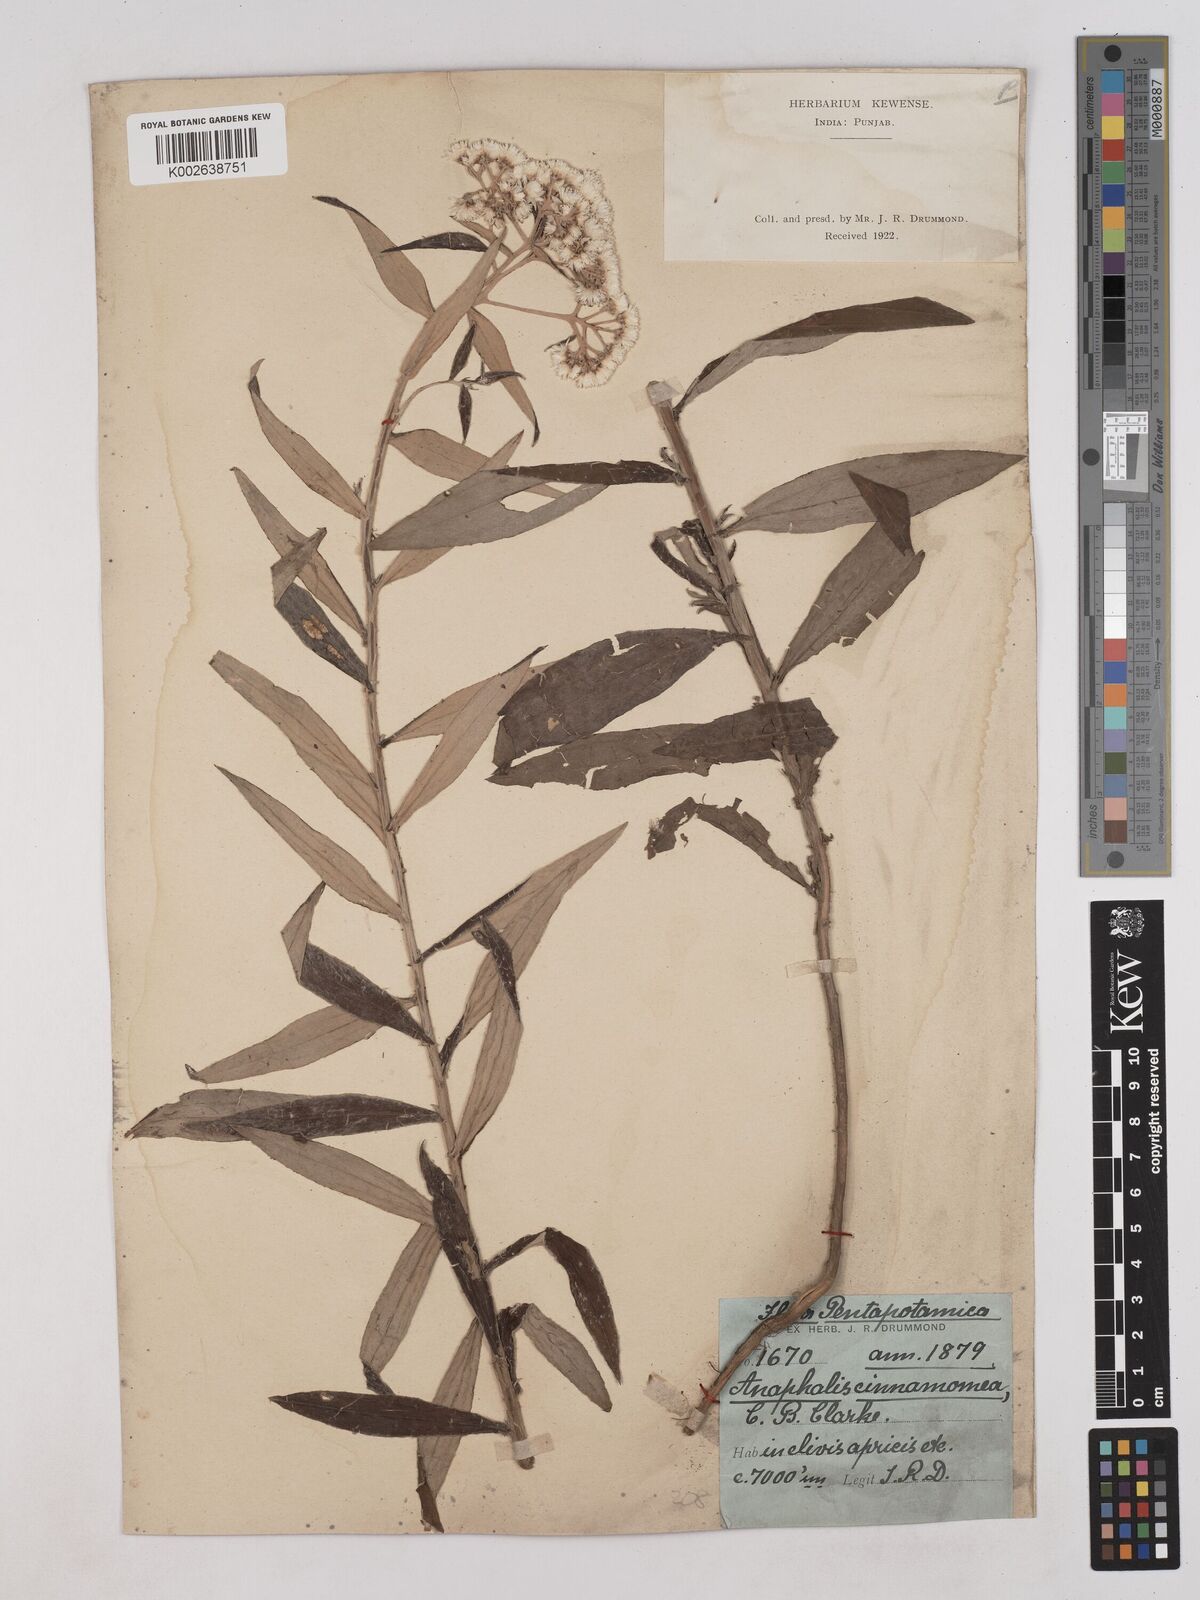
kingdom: Plantae
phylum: Tracheophyta
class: Magnoliopsida
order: Asterales
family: Asteraceae
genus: Anaphalis
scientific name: Anaphalis marcescens
